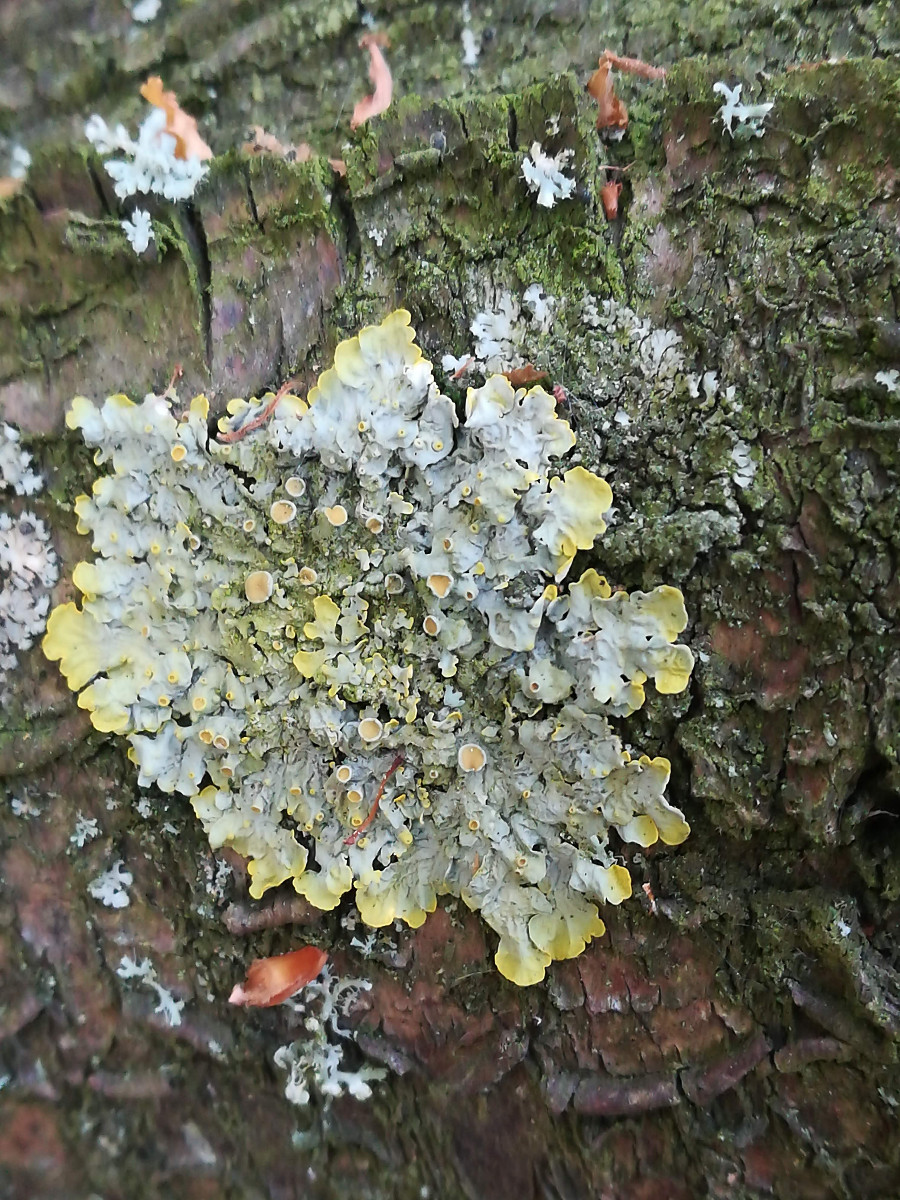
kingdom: Fungi
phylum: Ascomycota
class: Lecanoromycetes
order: Teloschistales
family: Teloschistaceae
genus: Xanthoria
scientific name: Xanthoria parietina
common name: almindelig væggelav
